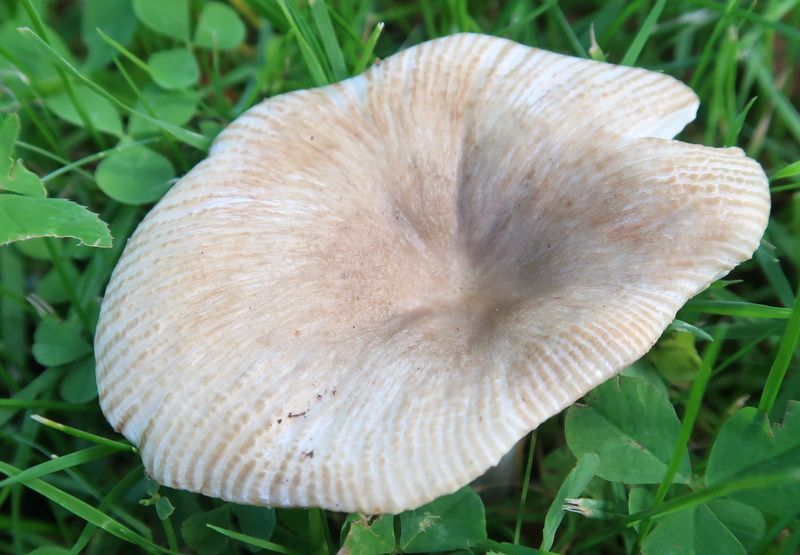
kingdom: Fungi
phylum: Basidiomycota
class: Agaricomycetes
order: Russulales
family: Russulaceae
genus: Russula
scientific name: Russula recondita
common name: mild kam-skørhat
